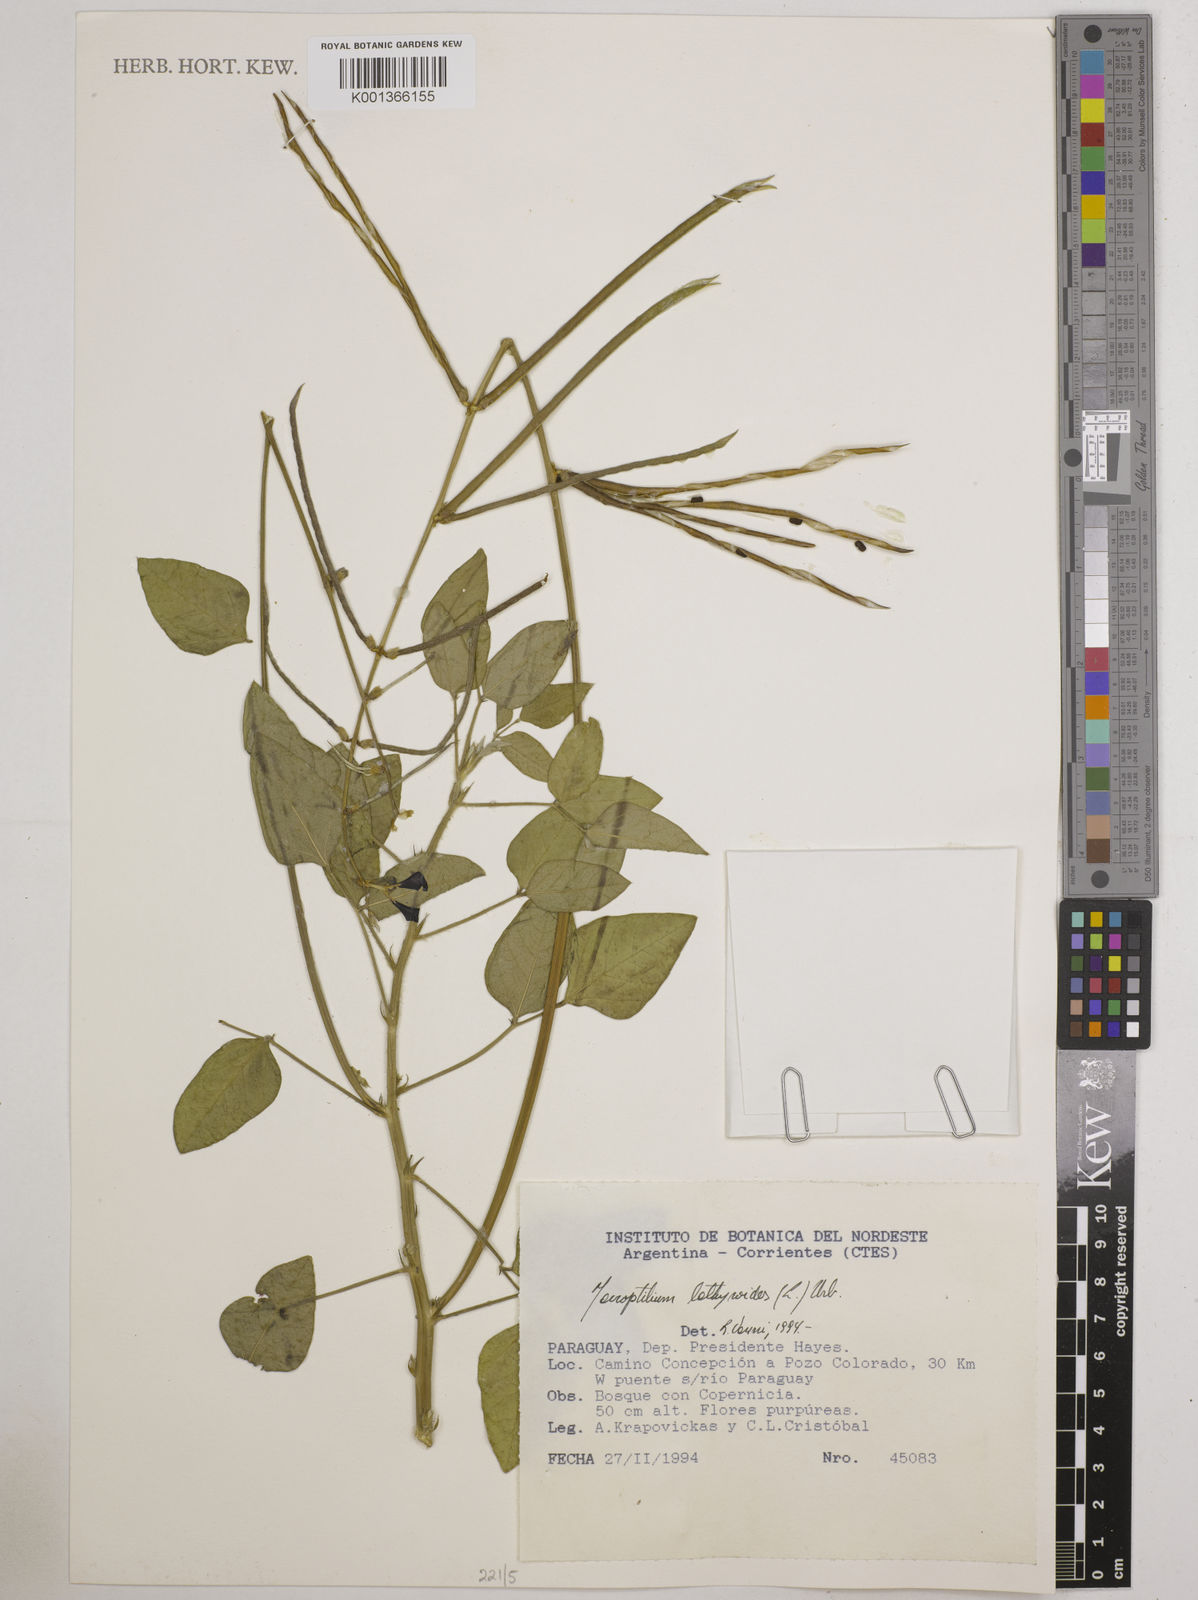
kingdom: Plantae
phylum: Tracheophyta
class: Magnoliopsida
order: Fabales
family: Fabaceae
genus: Macroptilium
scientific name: Macroptilium lathyroides
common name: Wild bushbean
